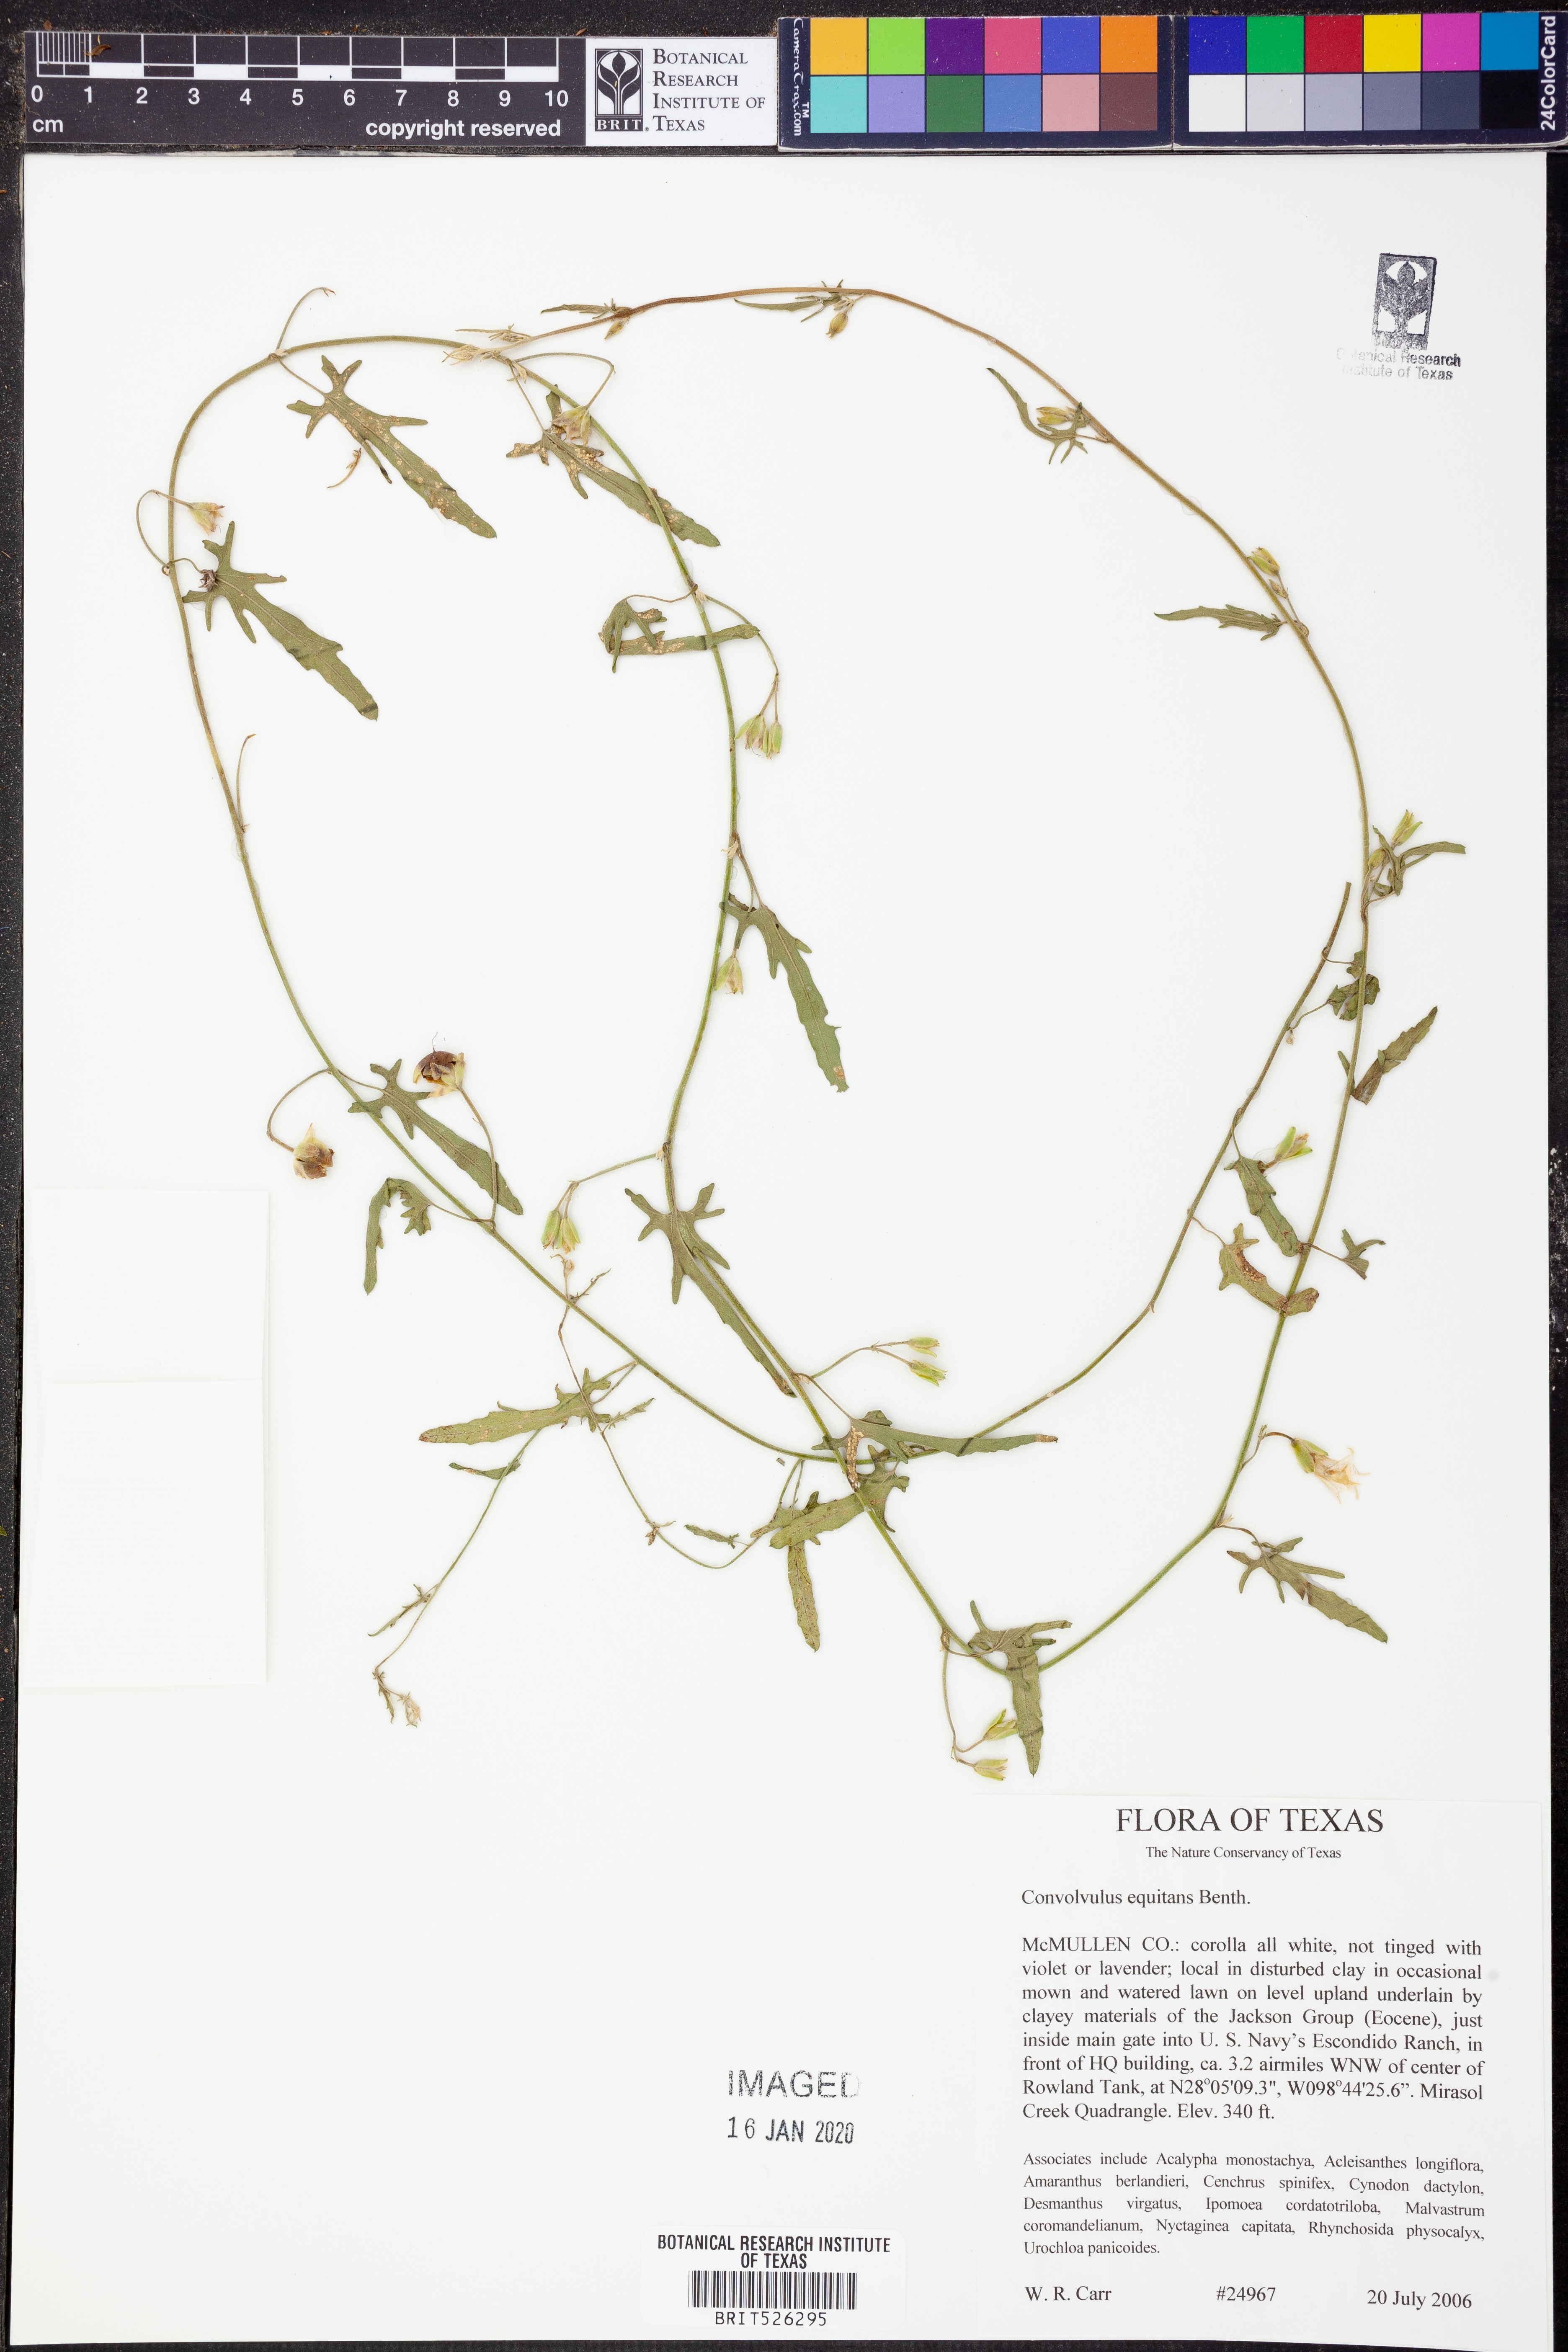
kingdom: Plantae
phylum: Tracheophyta
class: Magnoliopsida
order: Solanales
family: Convolvulaceae
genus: Convolvulus
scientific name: Convolvulus equitans
